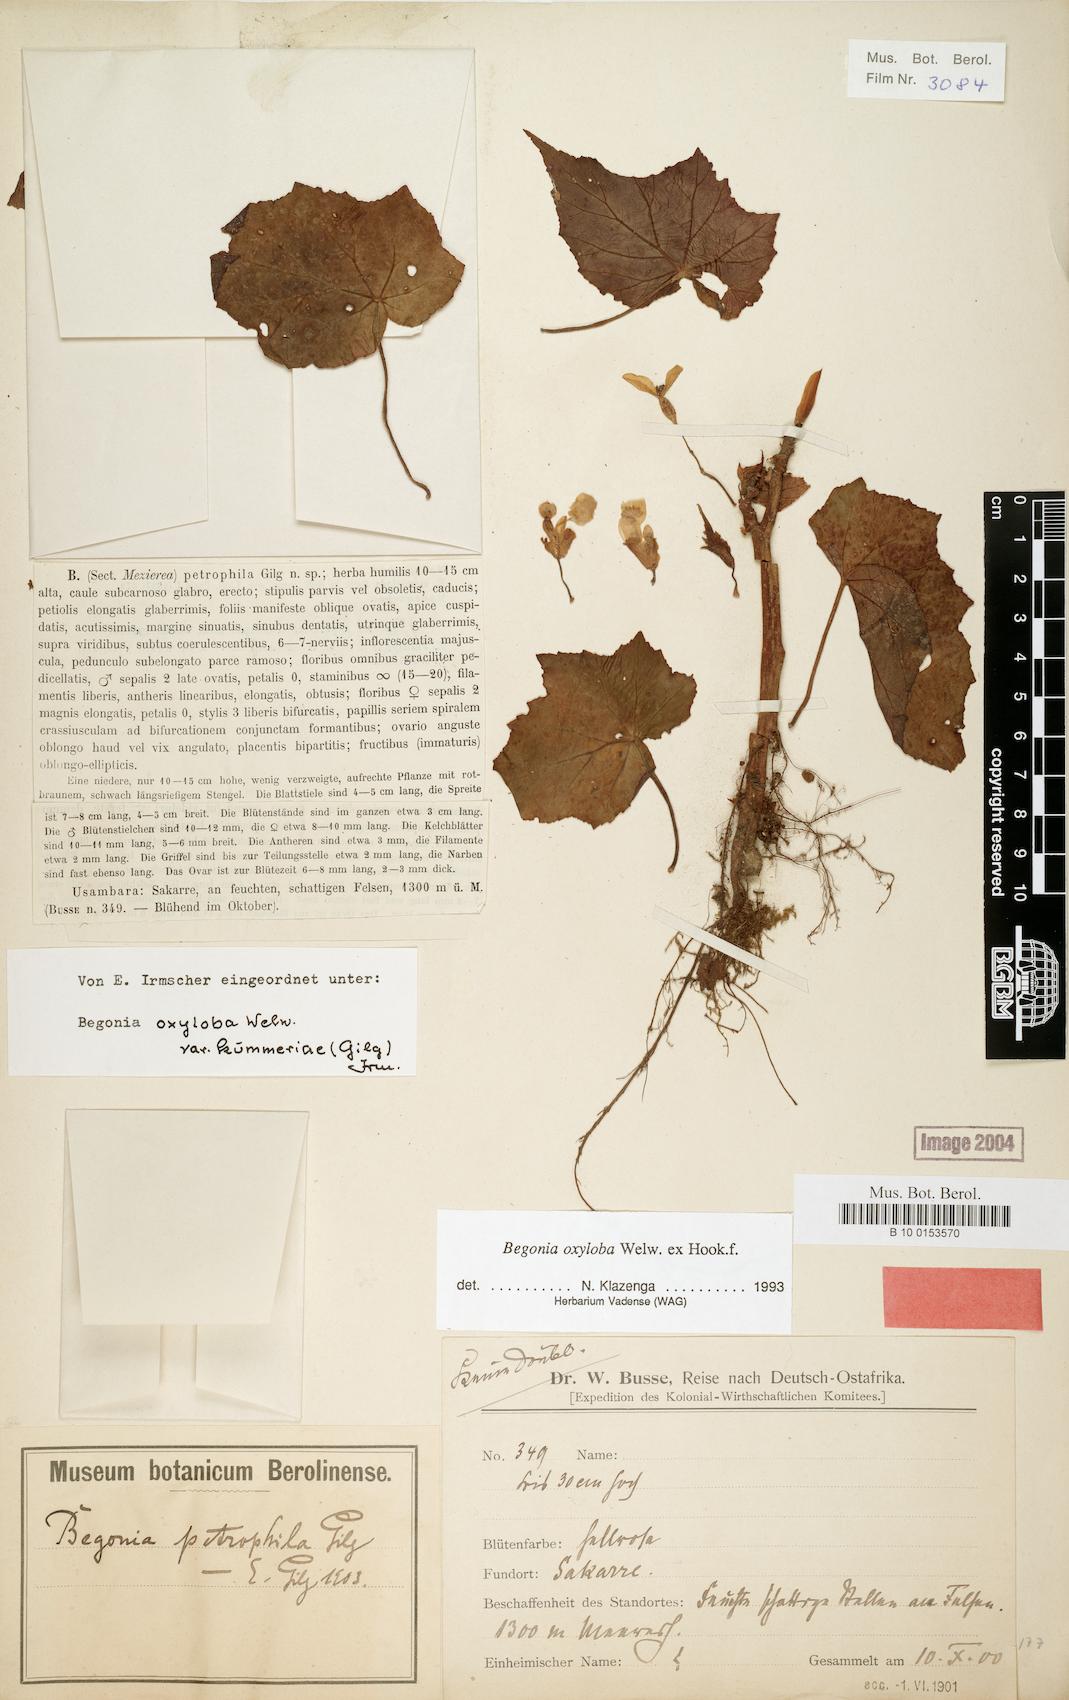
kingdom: Plantae
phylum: Tracheophyta
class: Magnoliopsida
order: Cucurbitales
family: Begoniaceae
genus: Begonia
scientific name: Begonia oxyloba
